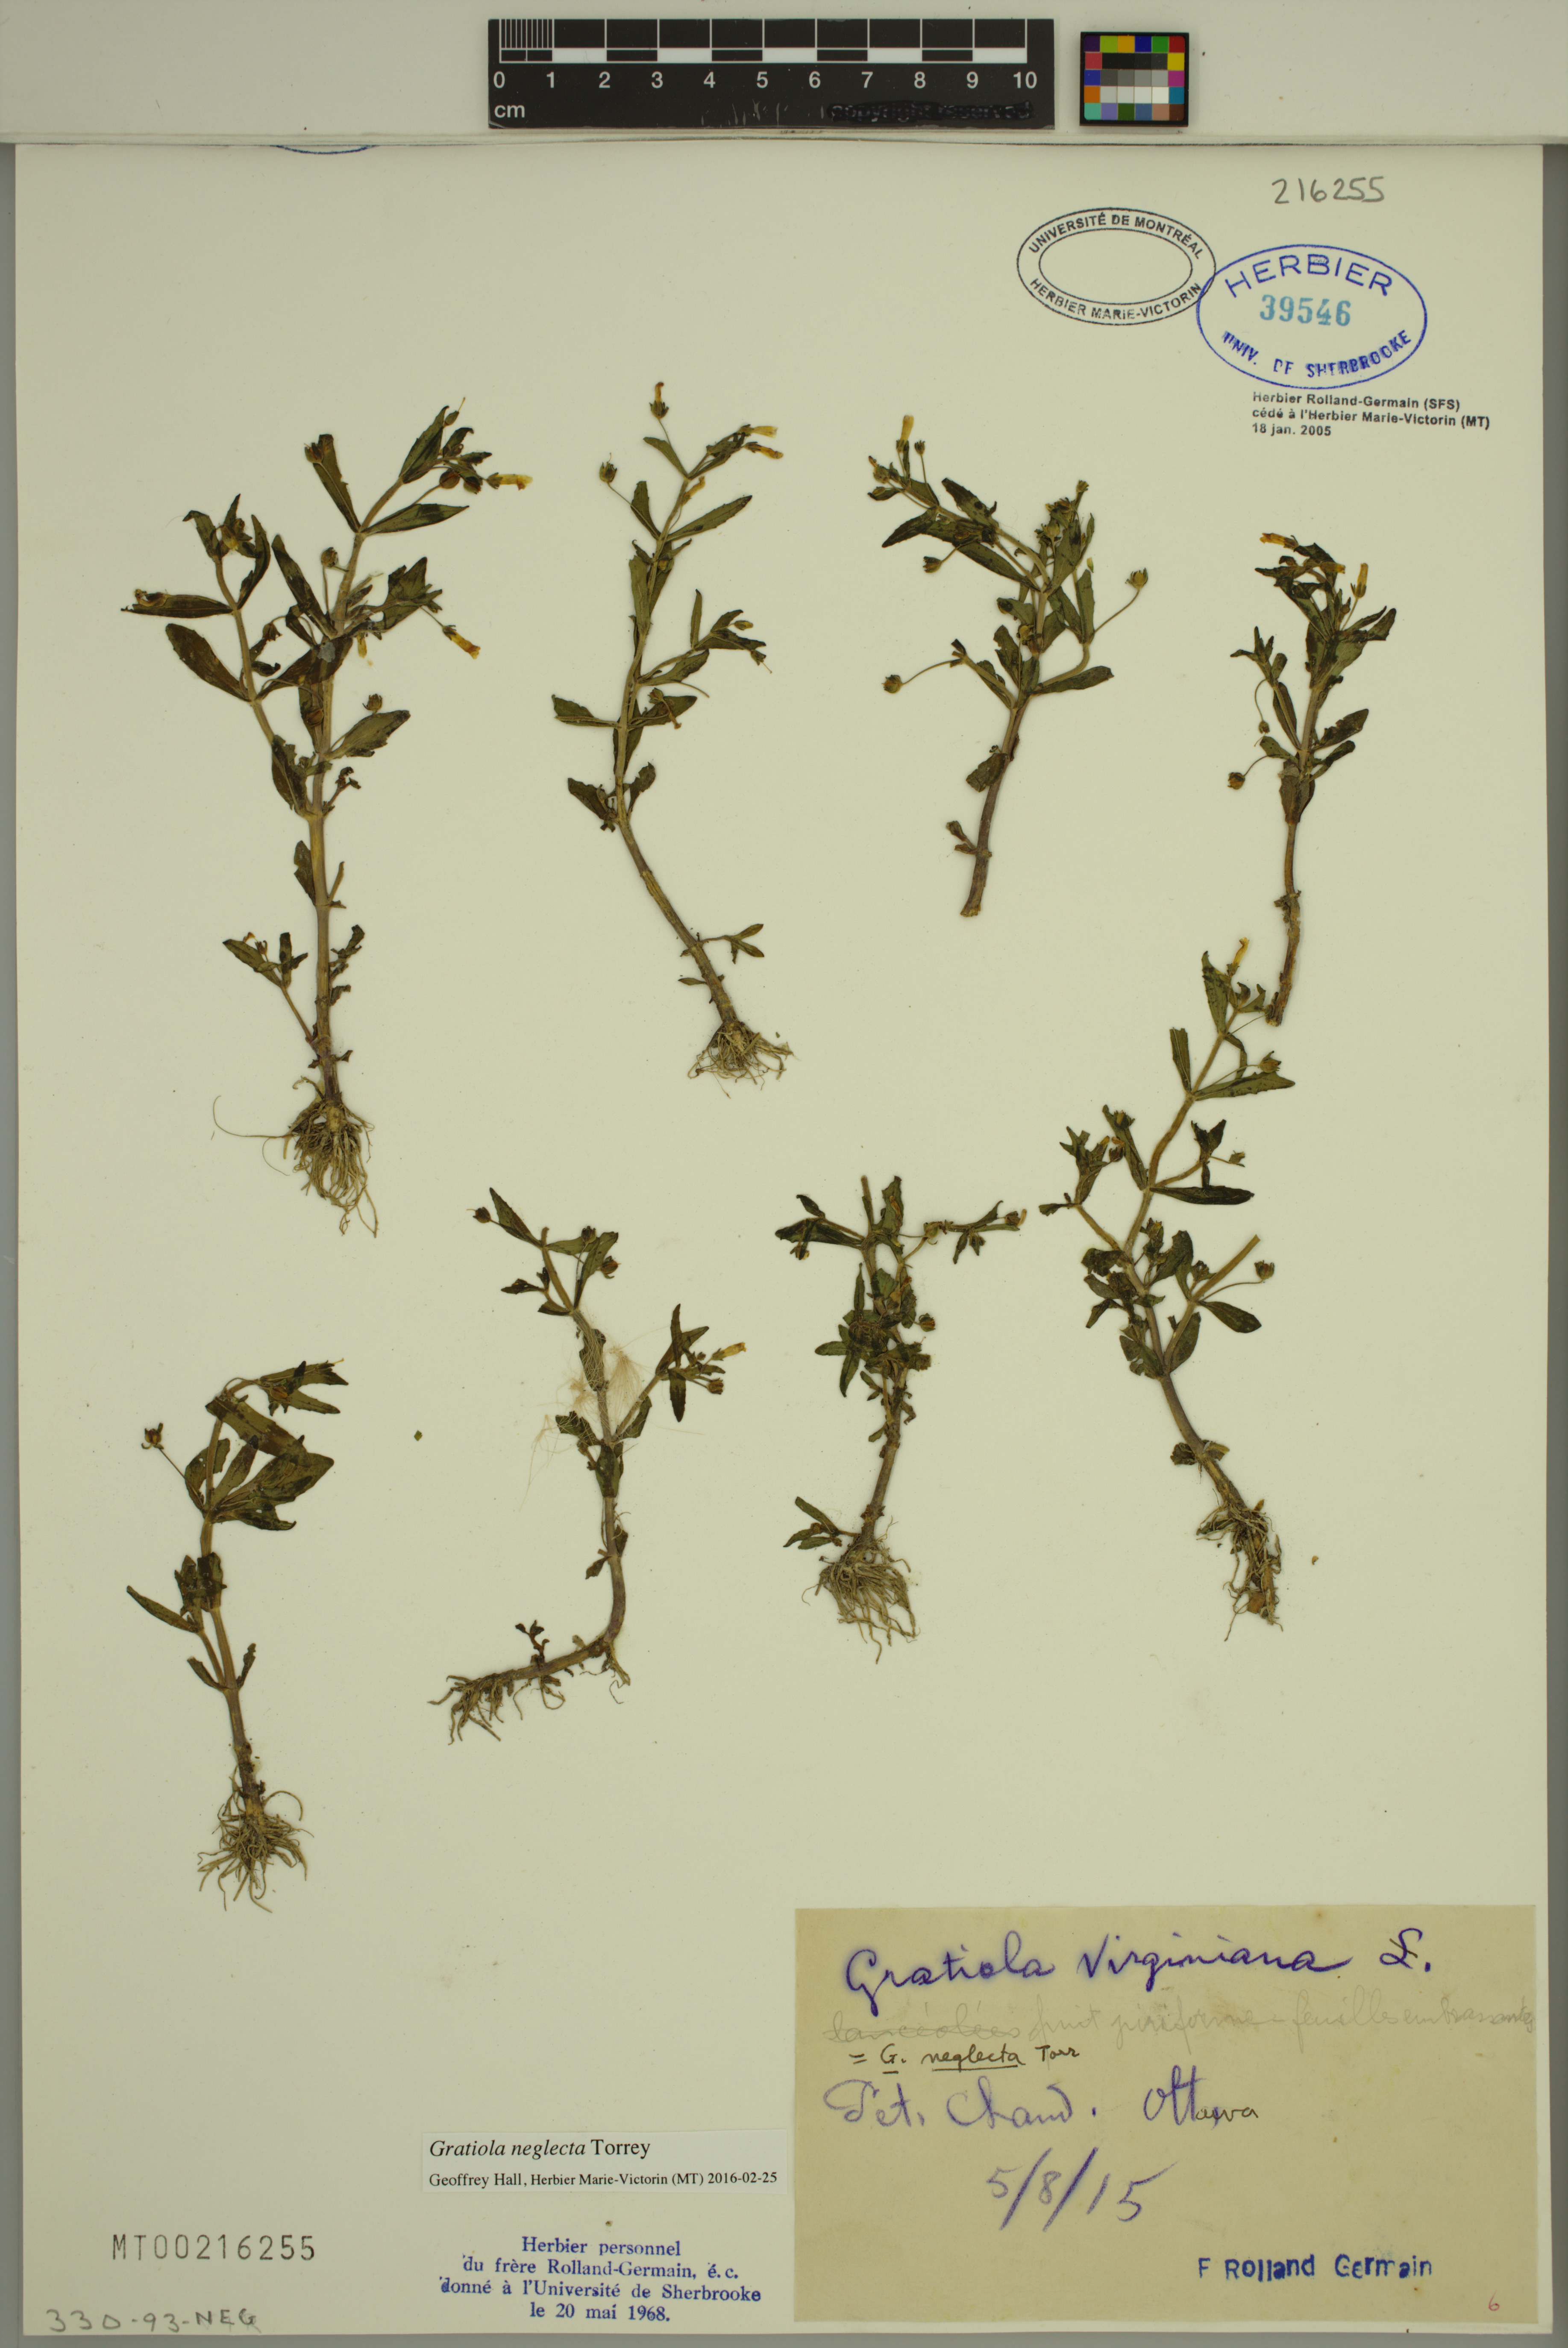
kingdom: Plantae
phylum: Tracheophyta
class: Magnoliopsida
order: Lamiales
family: Plantaginaceae
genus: Gratiola
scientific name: Gratiola neglecta
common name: American hedge-hyssop
